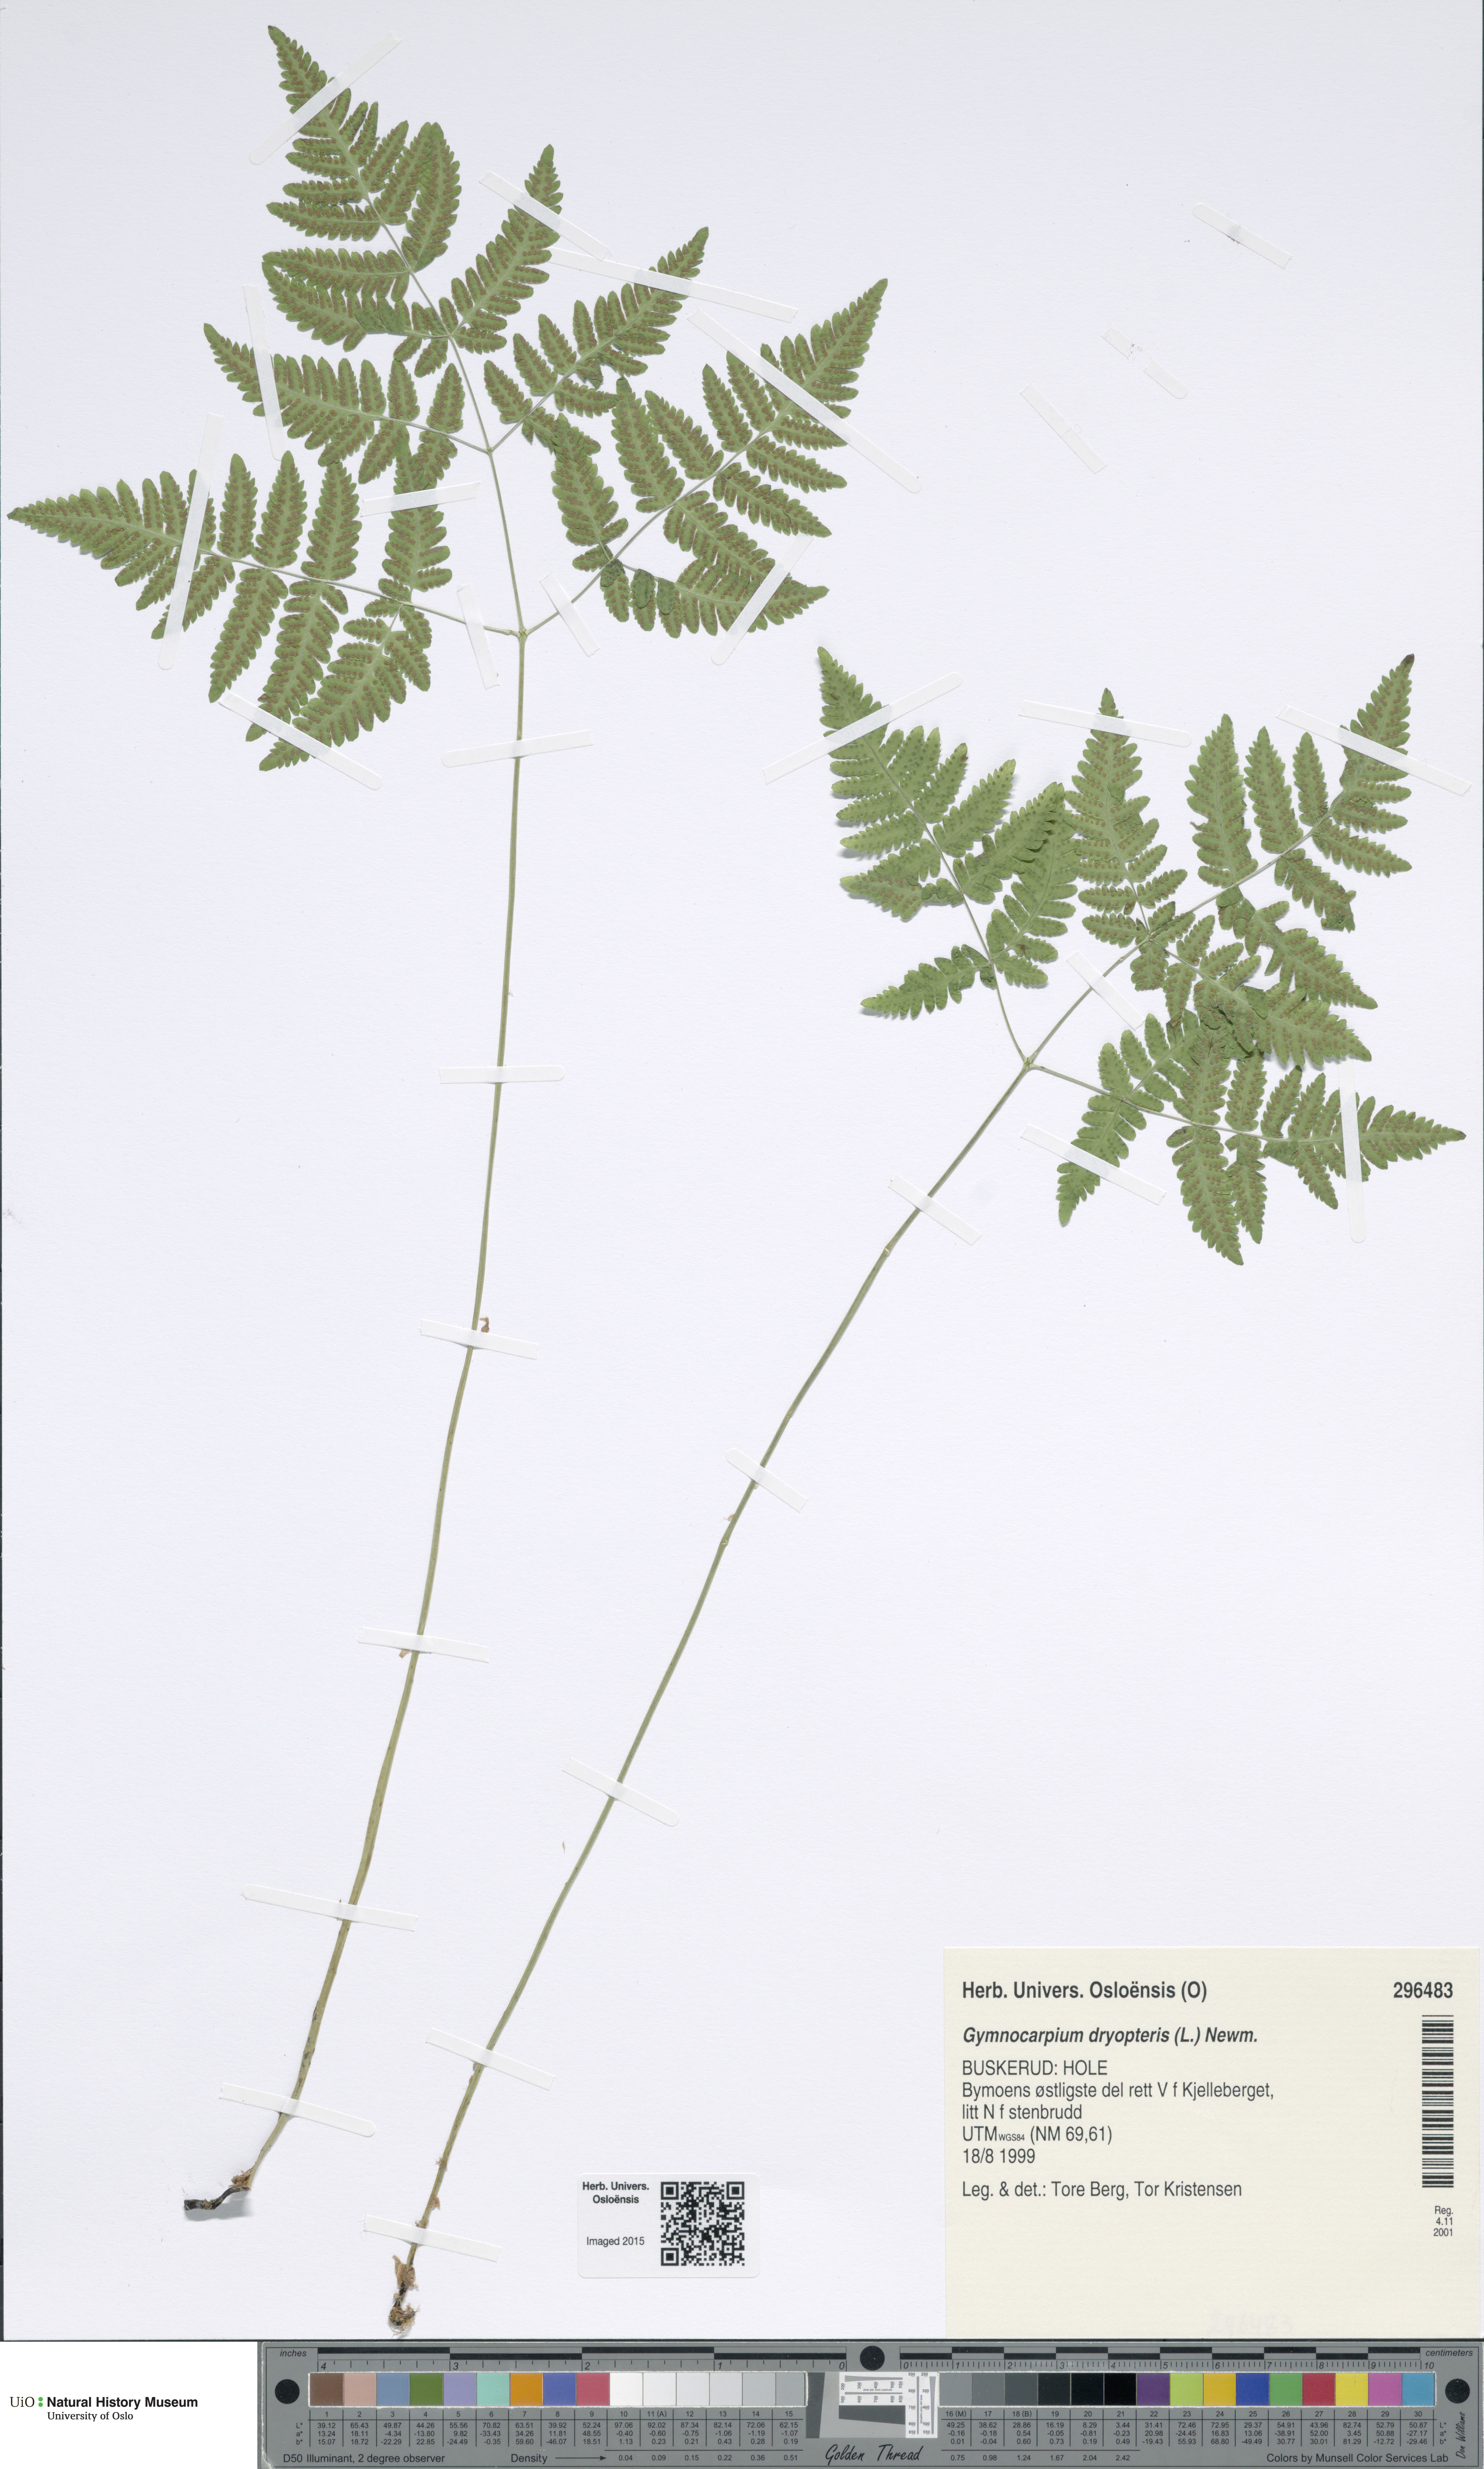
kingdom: Plantae
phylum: Tracheophyta
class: Polypodiopsida
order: Polypodiales
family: Cystopteridaceae
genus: Gymnocarpium
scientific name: Gymnocarpium dryopteris
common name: Oak fern
